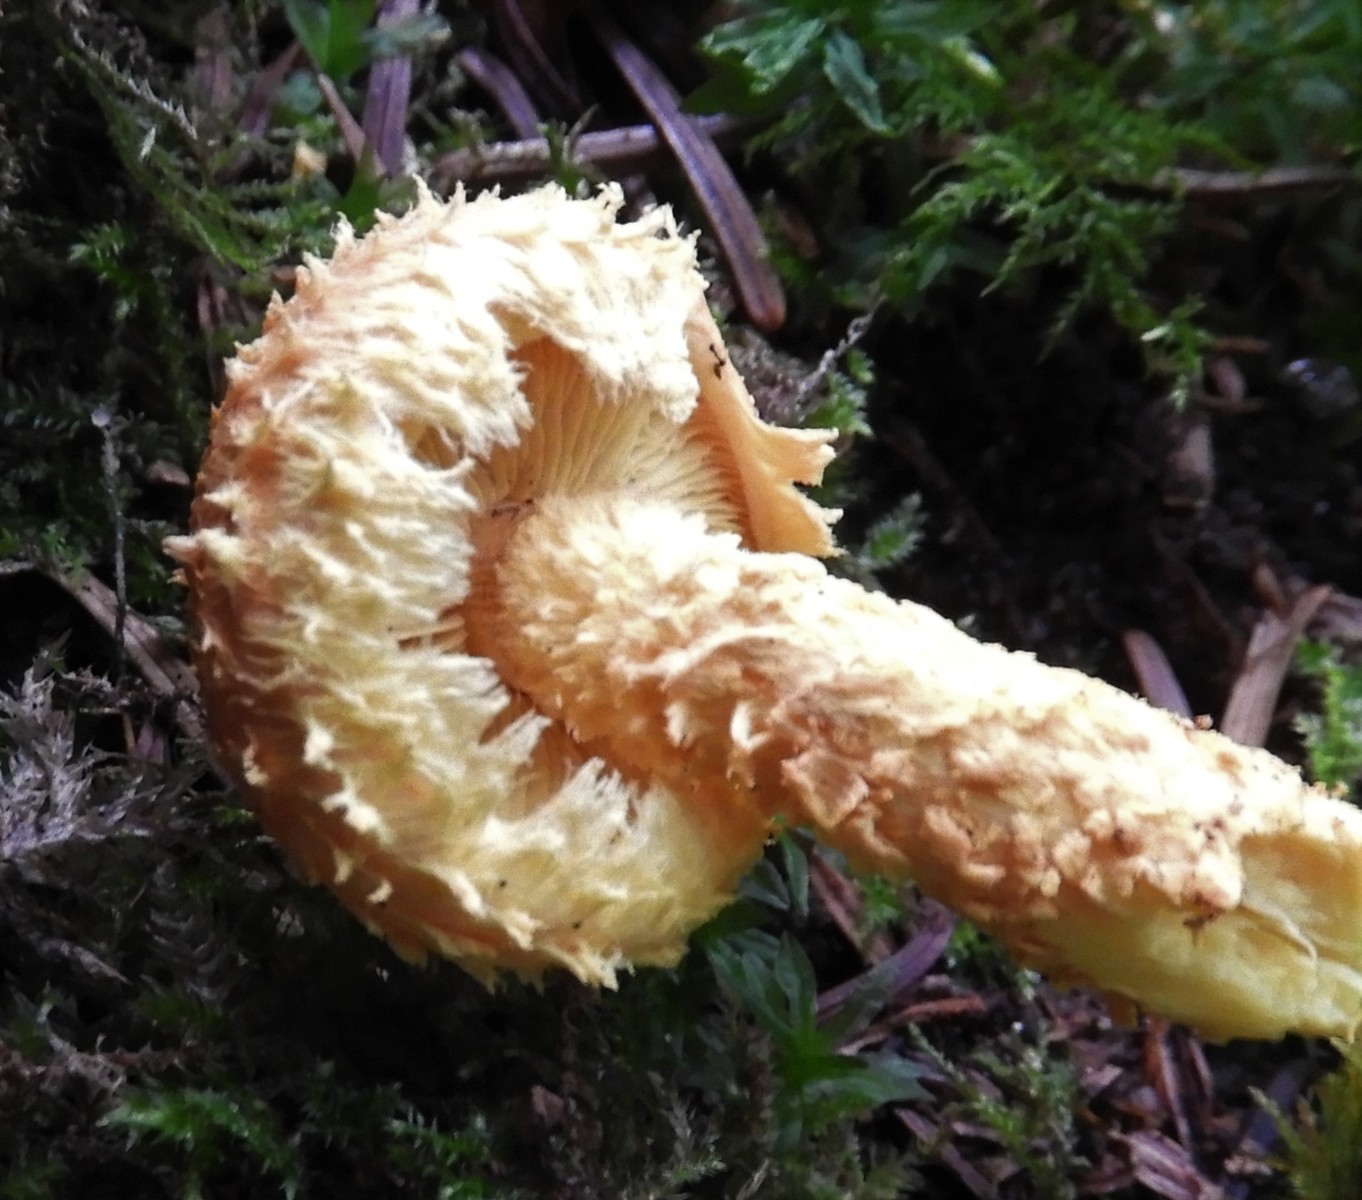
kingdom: Fungi
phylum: Basidiomycota
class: Agaricomycetes
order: Agaricales
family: Strophariaceae
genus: Pholiota
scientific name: Pholiota flammans
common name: flamme-skælhat
